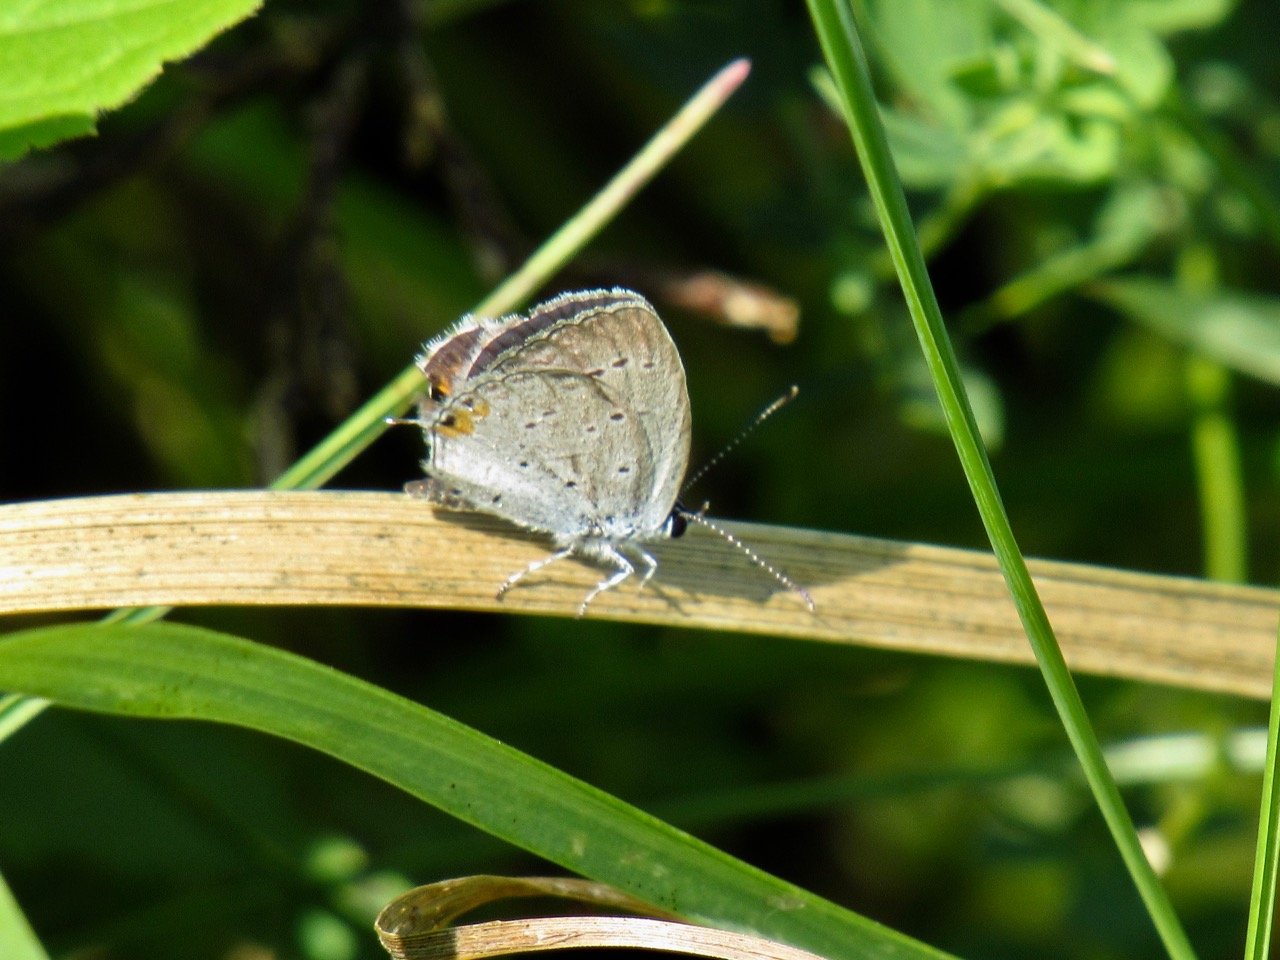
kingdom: Animalia
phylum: Arthropoda
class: Insecta
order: Lepidoptera
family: Lycaenidae
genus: Elkalyce
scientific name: Elkalyce comyntas
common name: Eastern Tailed-Blue
